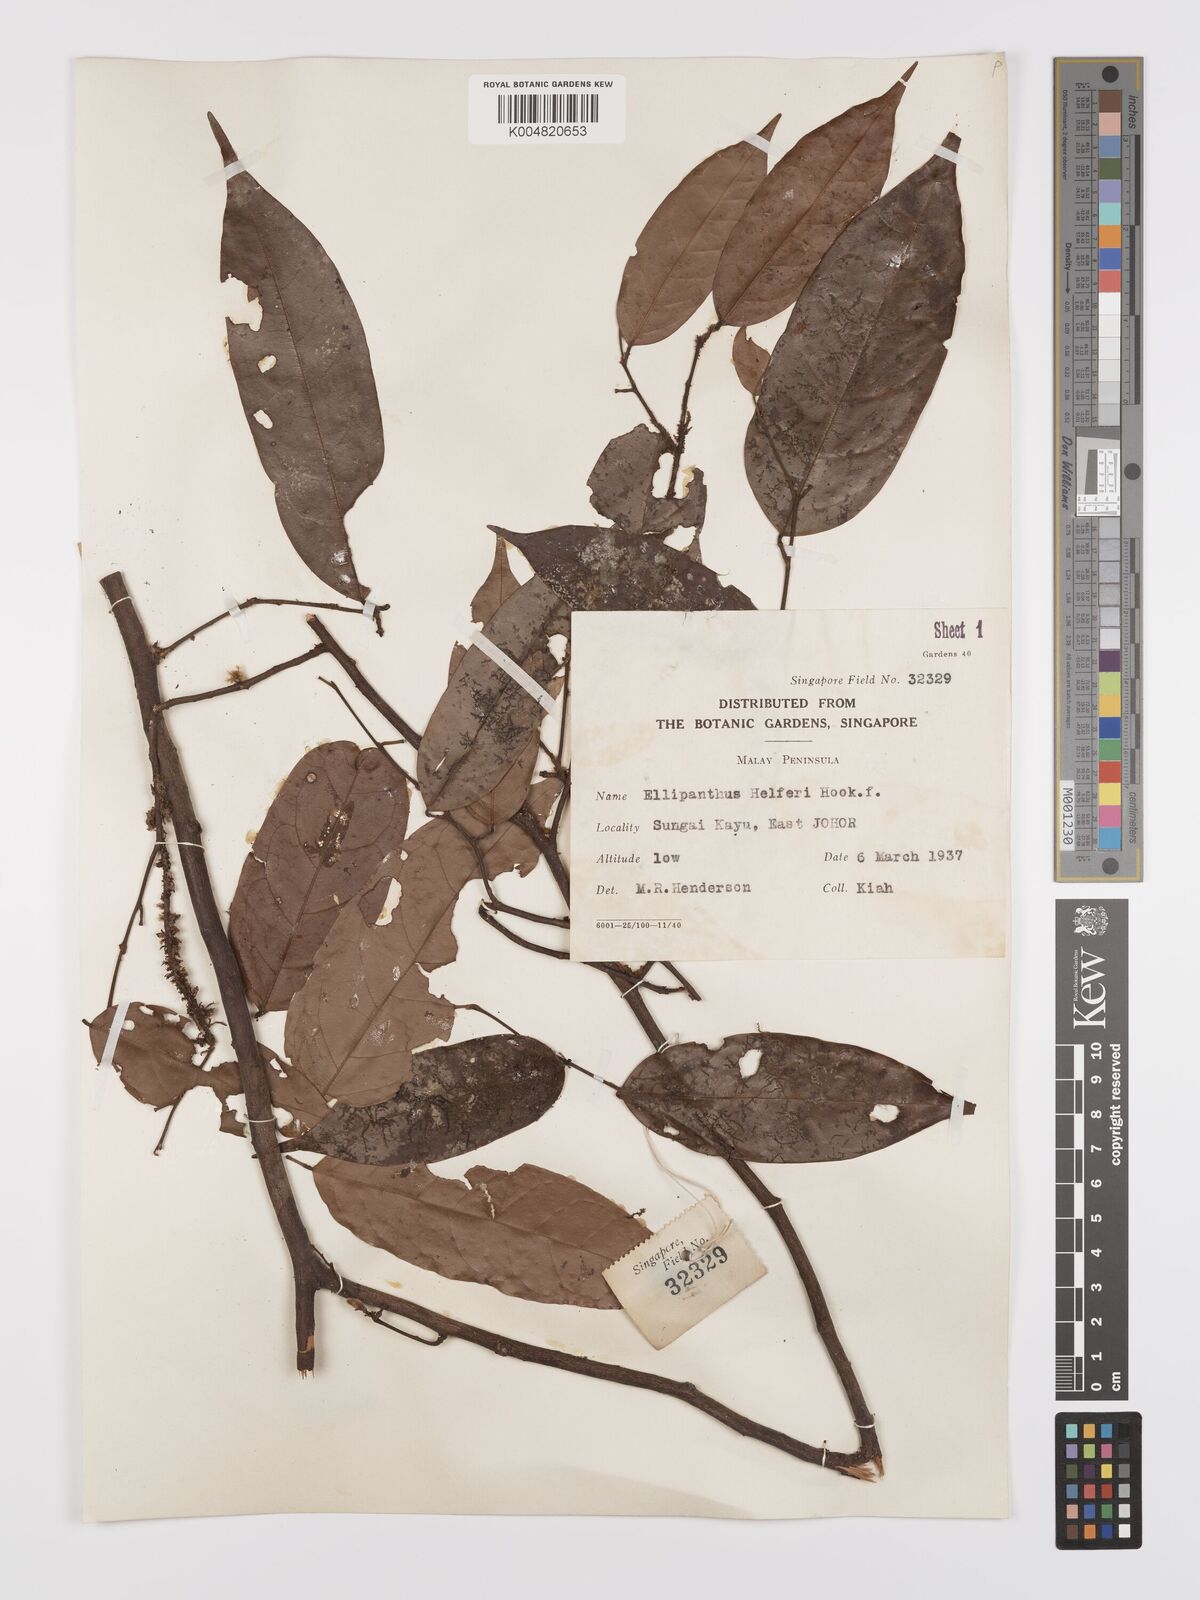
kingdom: Plantae
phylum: Tracheophyta
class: Magnoliopsida
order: Oxalidales
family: Connaraceae
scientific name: Connaraceae
